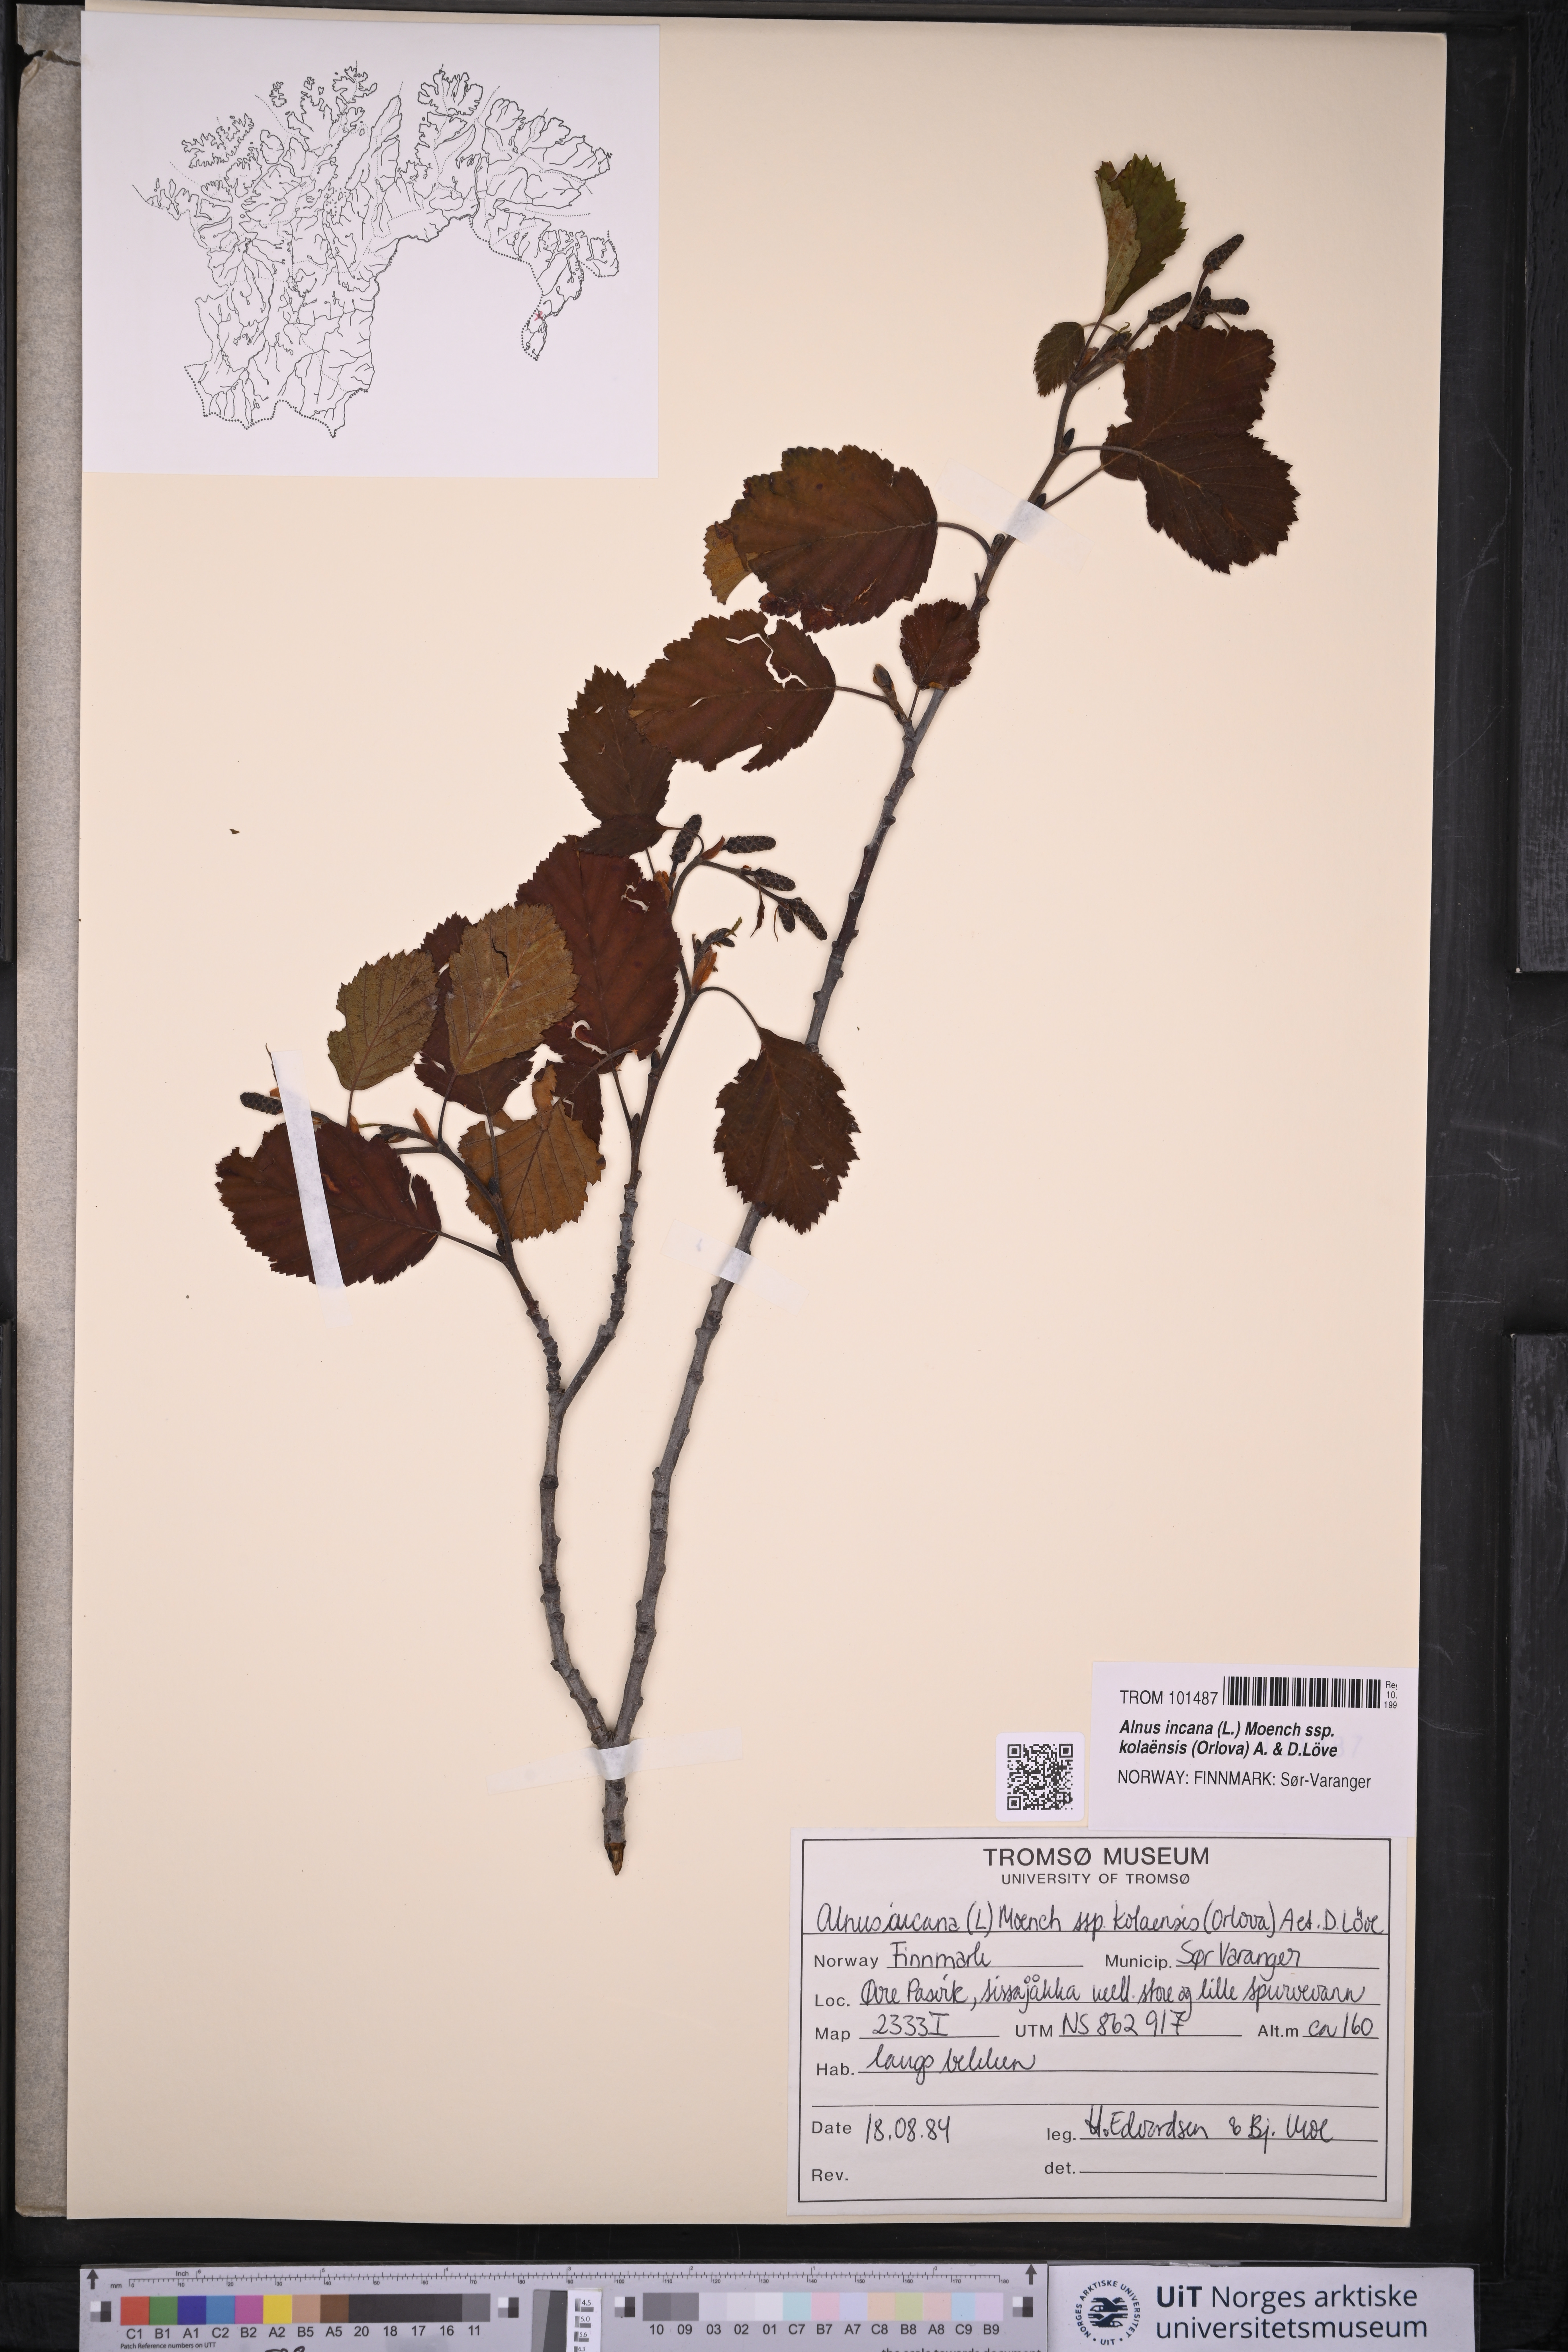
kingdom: Plantae
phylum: Tracheophyta
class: Magnoliopsida
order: Fagales
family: Betulaceae
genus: Alnus
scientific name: Alnus incana
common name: Grey alder
